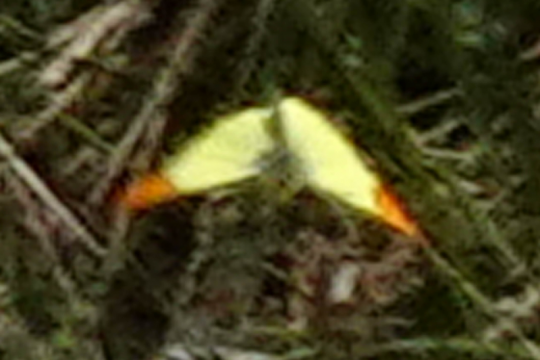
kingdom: Animalia
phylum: Arthropoda
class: Insecta
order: Lepidoptera
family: Pieridae
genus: Anthocharis
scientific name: Anthocharis euphenoides
